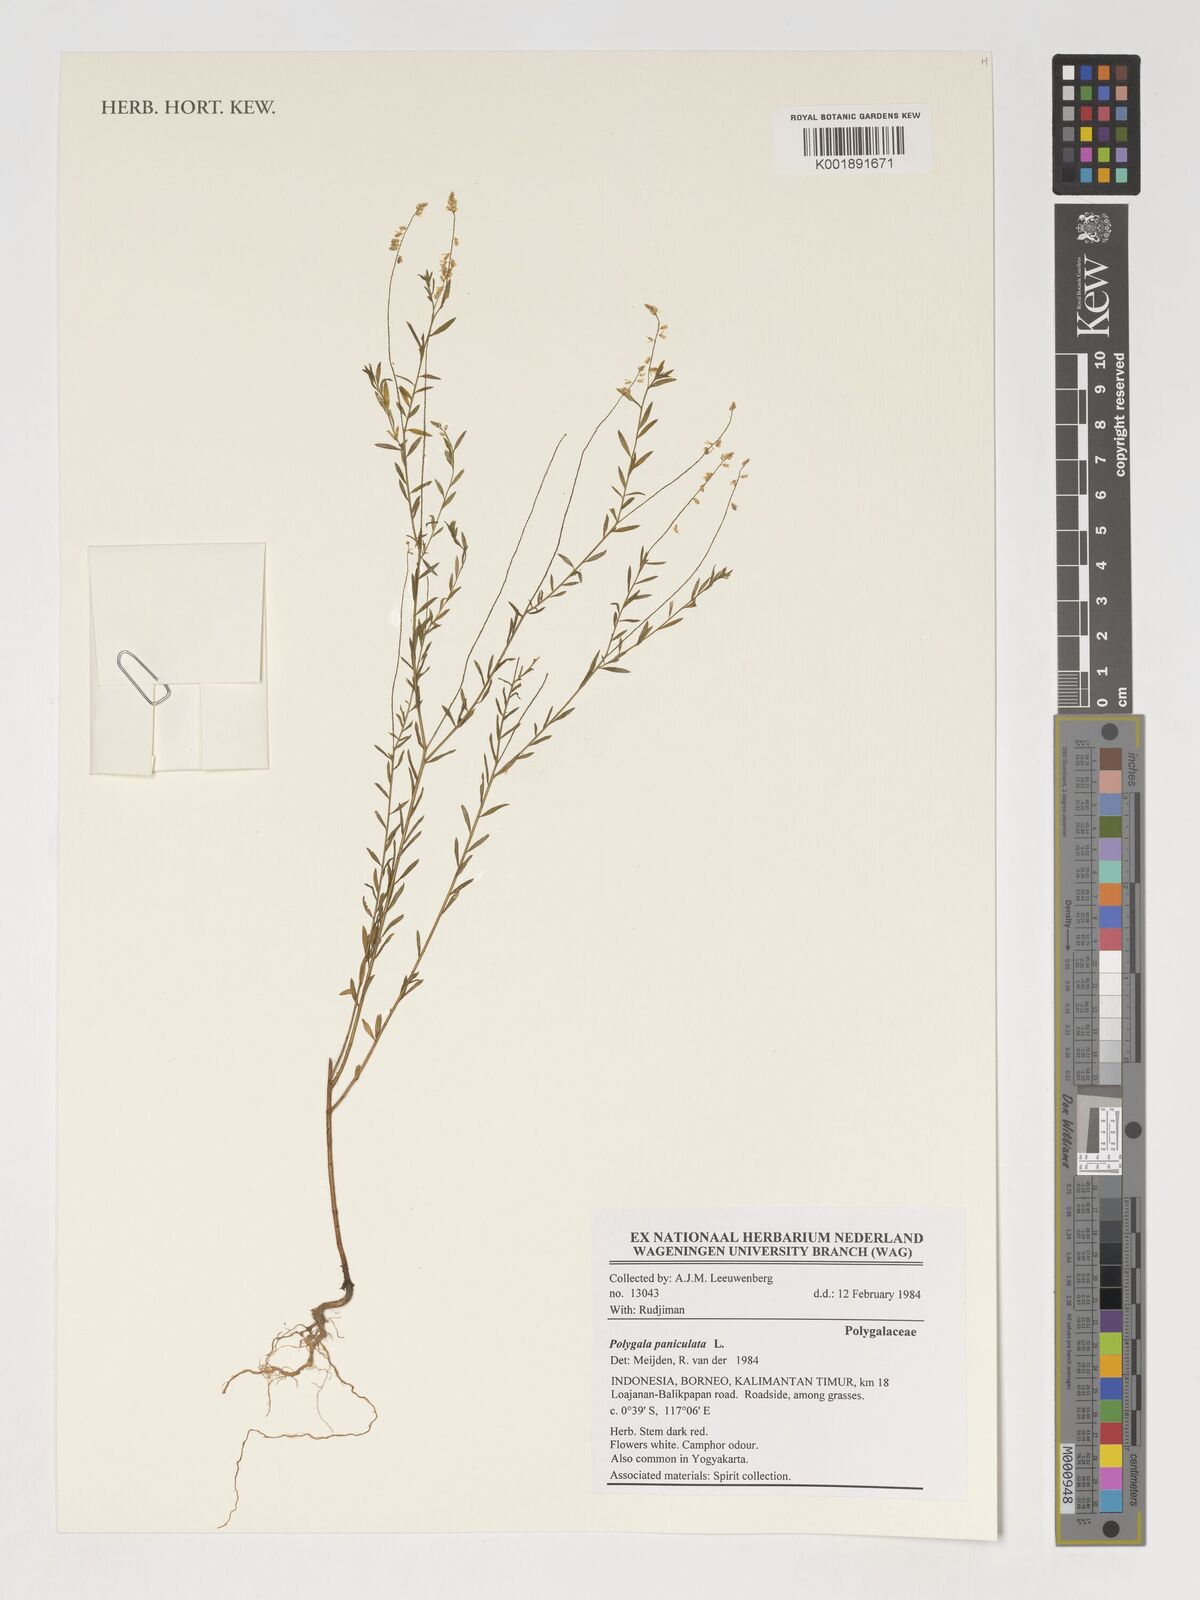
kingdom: Plantae
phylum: Tracheophyta
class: Magnoliopsida
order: Fabales
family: Polygalaceae
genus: Polygala
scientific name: Polygala paniculata
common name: Orosne
